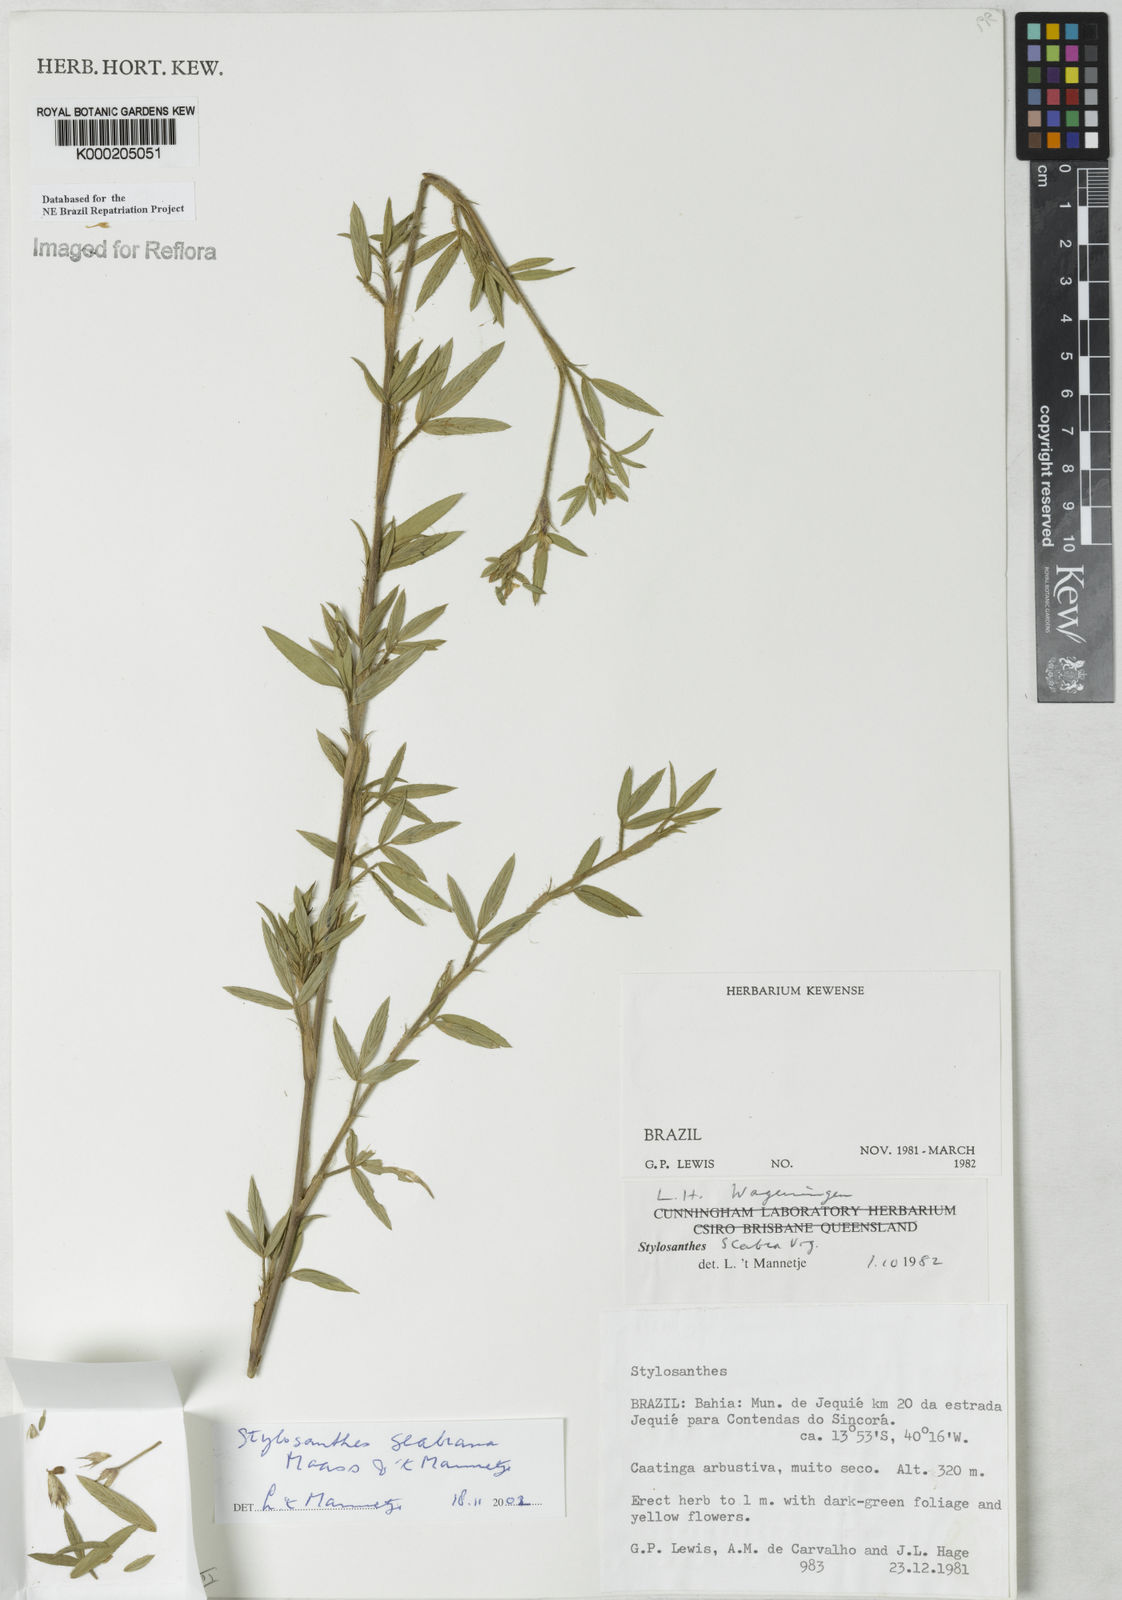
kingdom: Plantae
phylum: Tracheophyta
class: Magnoliopsida
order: Fabales
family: Fabaceae
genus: Stylosanthes
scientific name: Stylosanthes scabra
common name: Pencilflower
